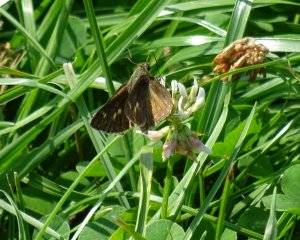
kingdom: Animalia
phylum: Arthropoda
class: Insecta
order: Lepidoptera
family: Hesperiidae
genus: Polites
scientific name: Polites egeremet
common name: Northern Broken-Dash
